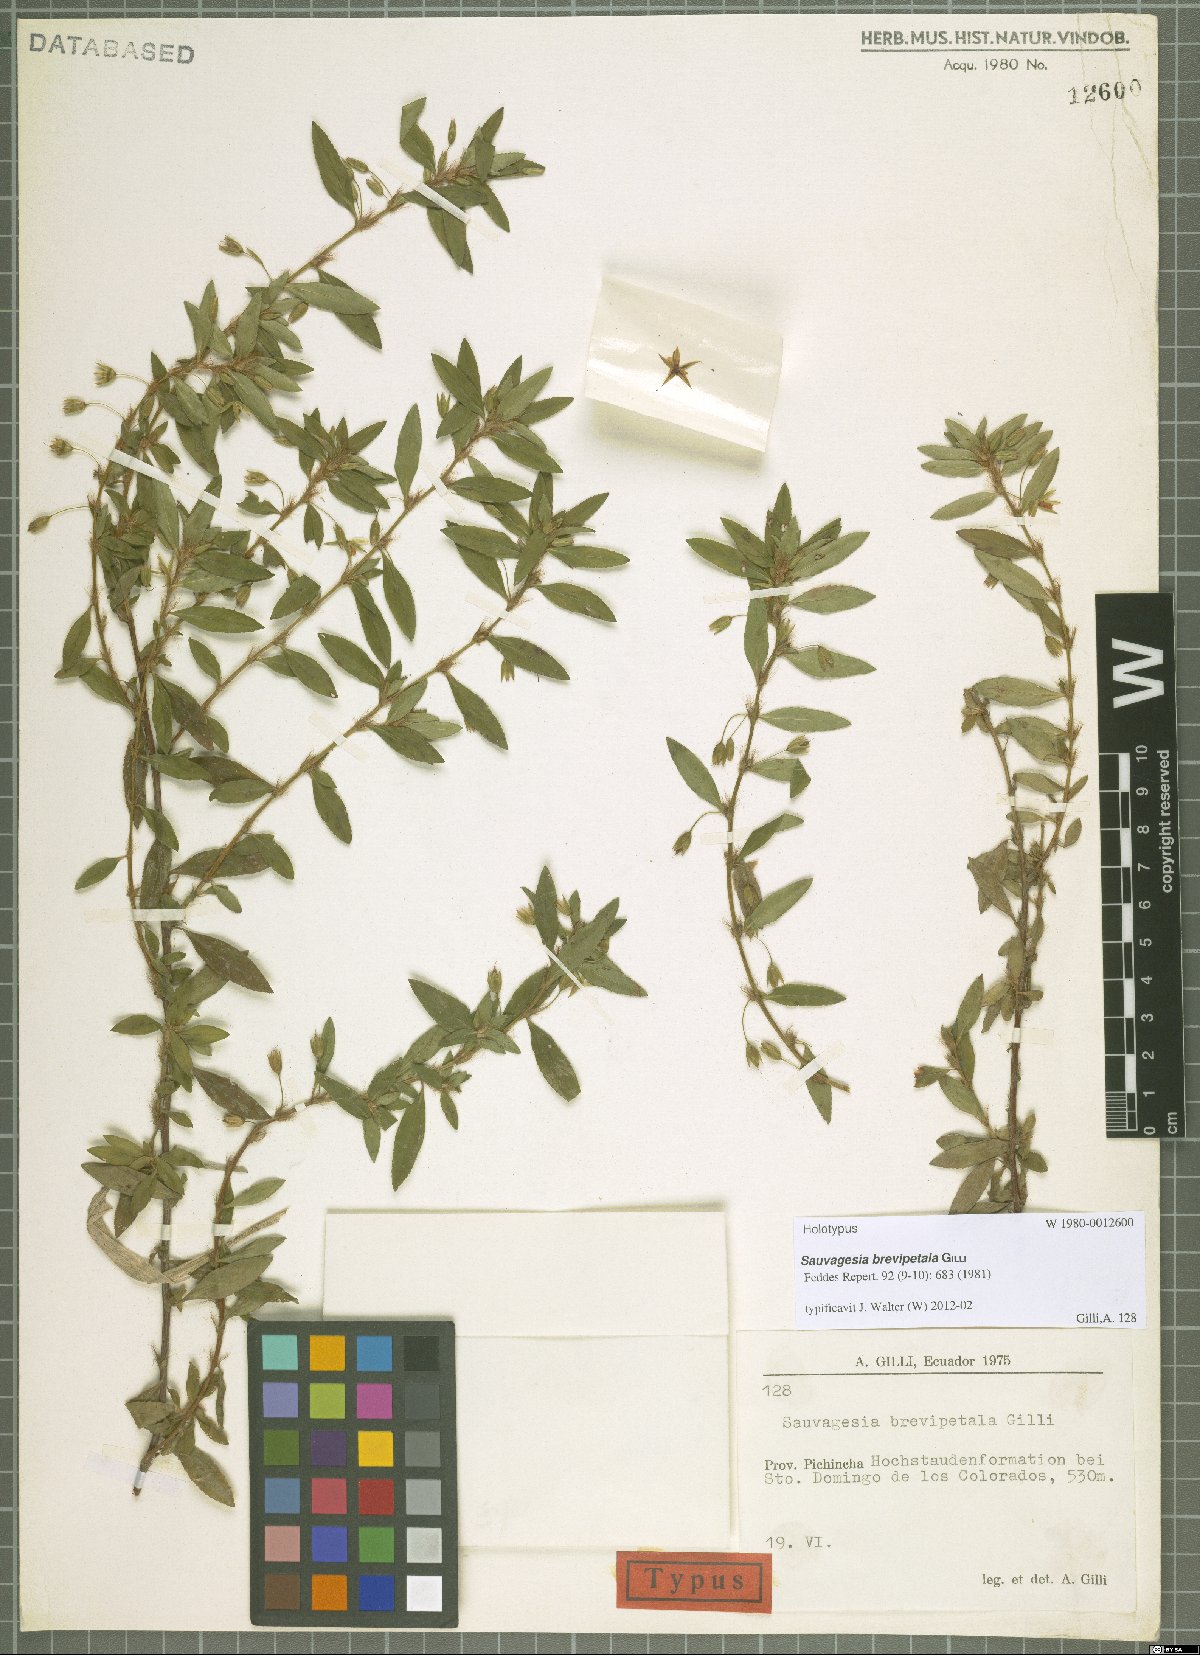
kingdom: Plantae
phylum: Tracheophyta
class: Magnoliopsida
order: Malpighiales
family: Ochnaceae
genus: Sauvagesia
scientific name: Sauvagesia brevipetala
